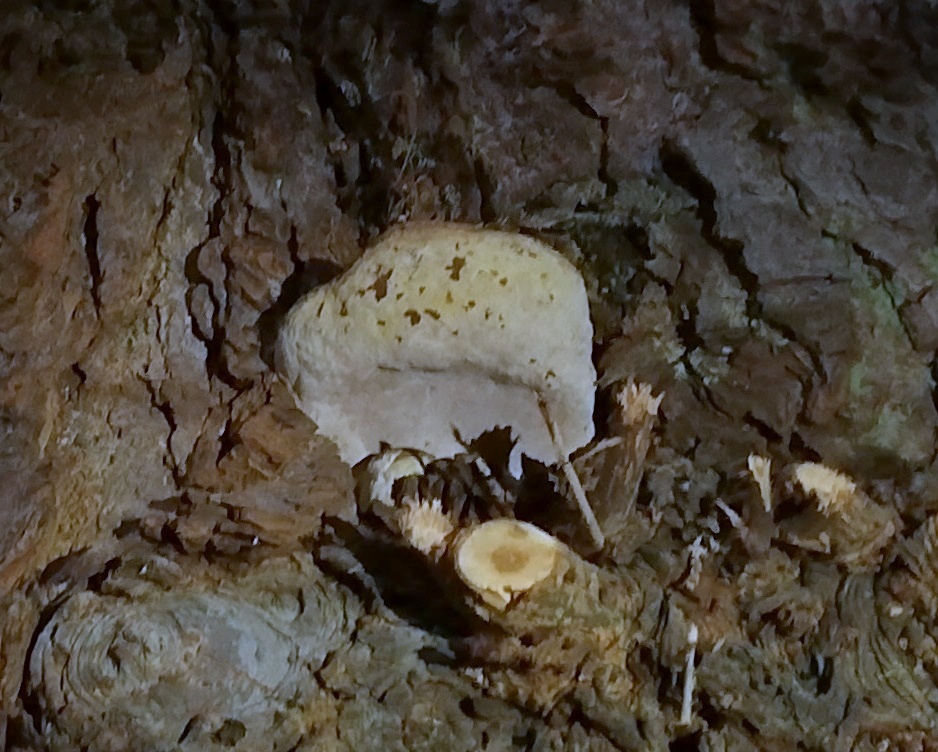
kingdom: Fungi
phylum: Basidiomycota
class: Agaricomycetes
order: Polyporales
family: Polyporaceae
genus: Ganoderma
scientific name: Ganoderma adspersum
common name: grov lakporesvamp
